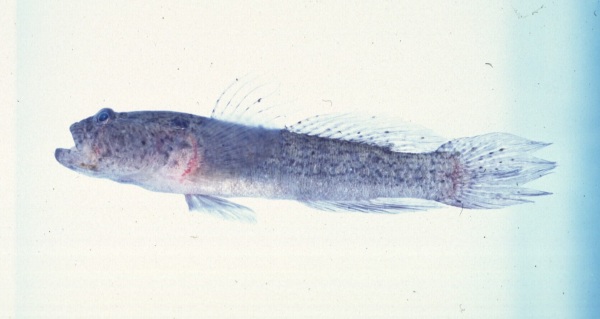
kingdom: Animalia
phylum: Chordata
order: Perciformes
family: Gobiidae
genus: Caffrogobius
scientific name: Caffrogobius natalensis
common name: Baldy
